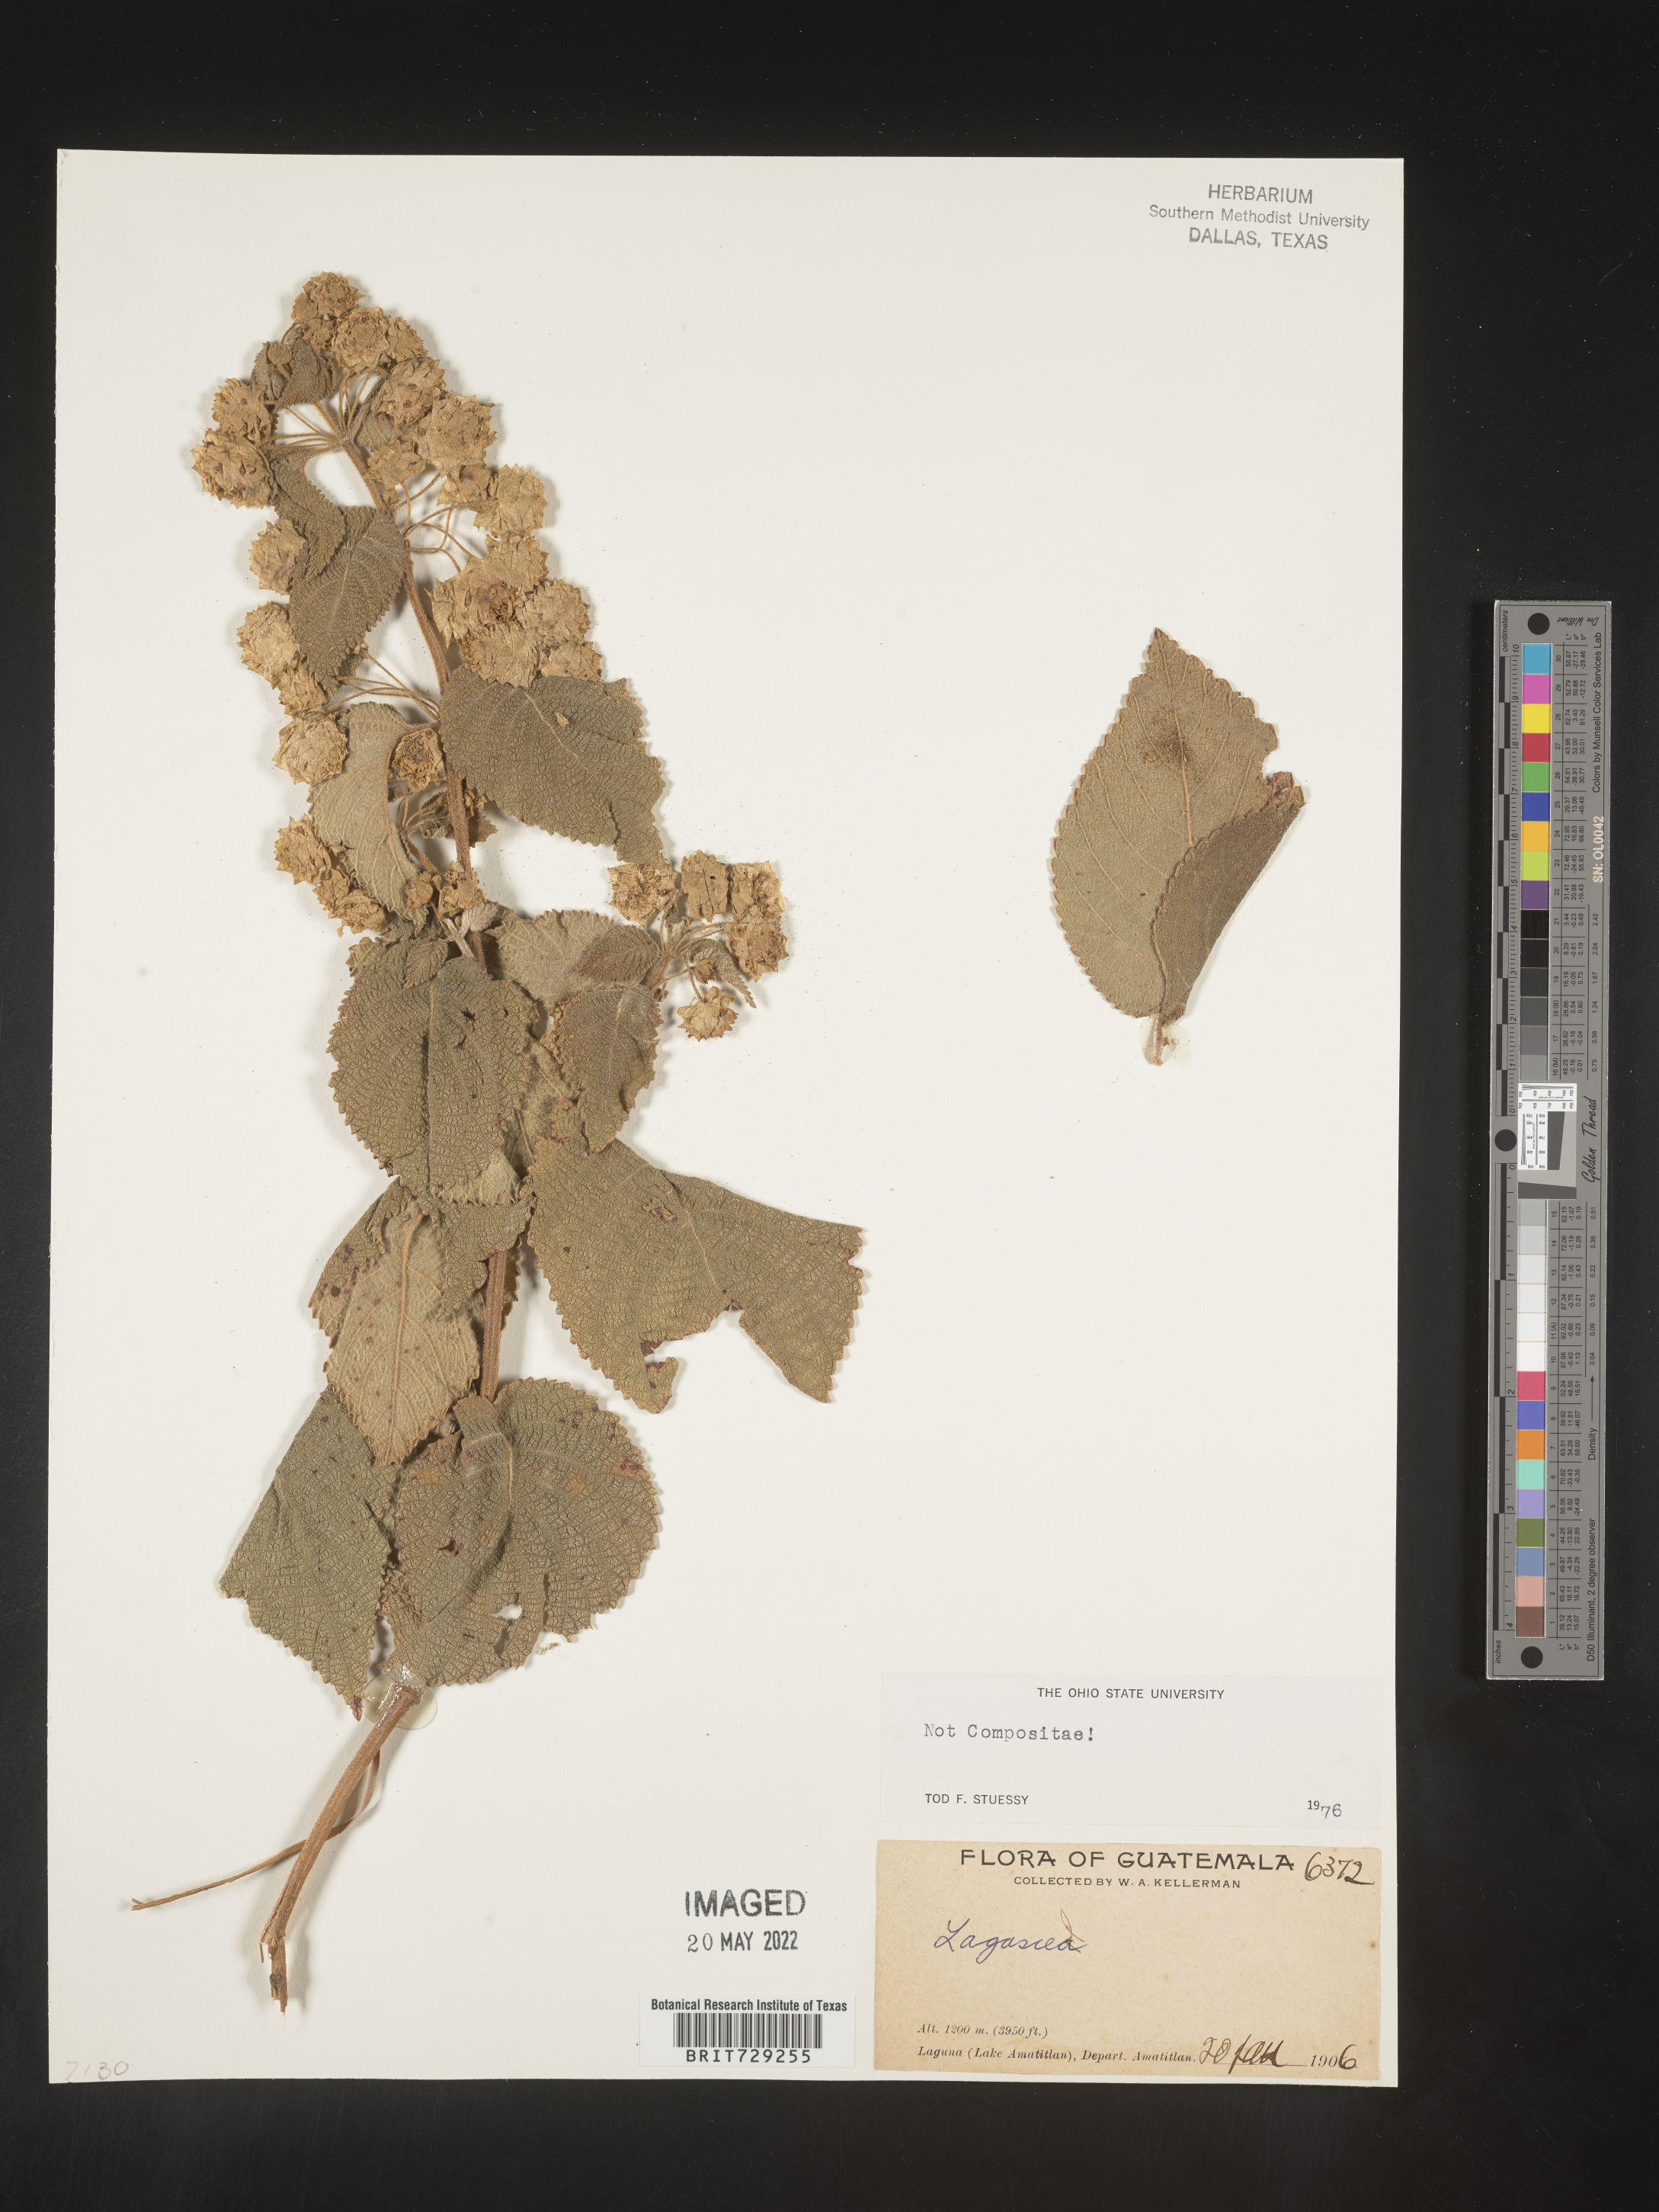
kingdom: Plantae
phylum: Tracheophyta
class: Magnoliopsida
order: Asterales
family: Asteraceae
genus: Lagascea
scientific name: Lagascea
